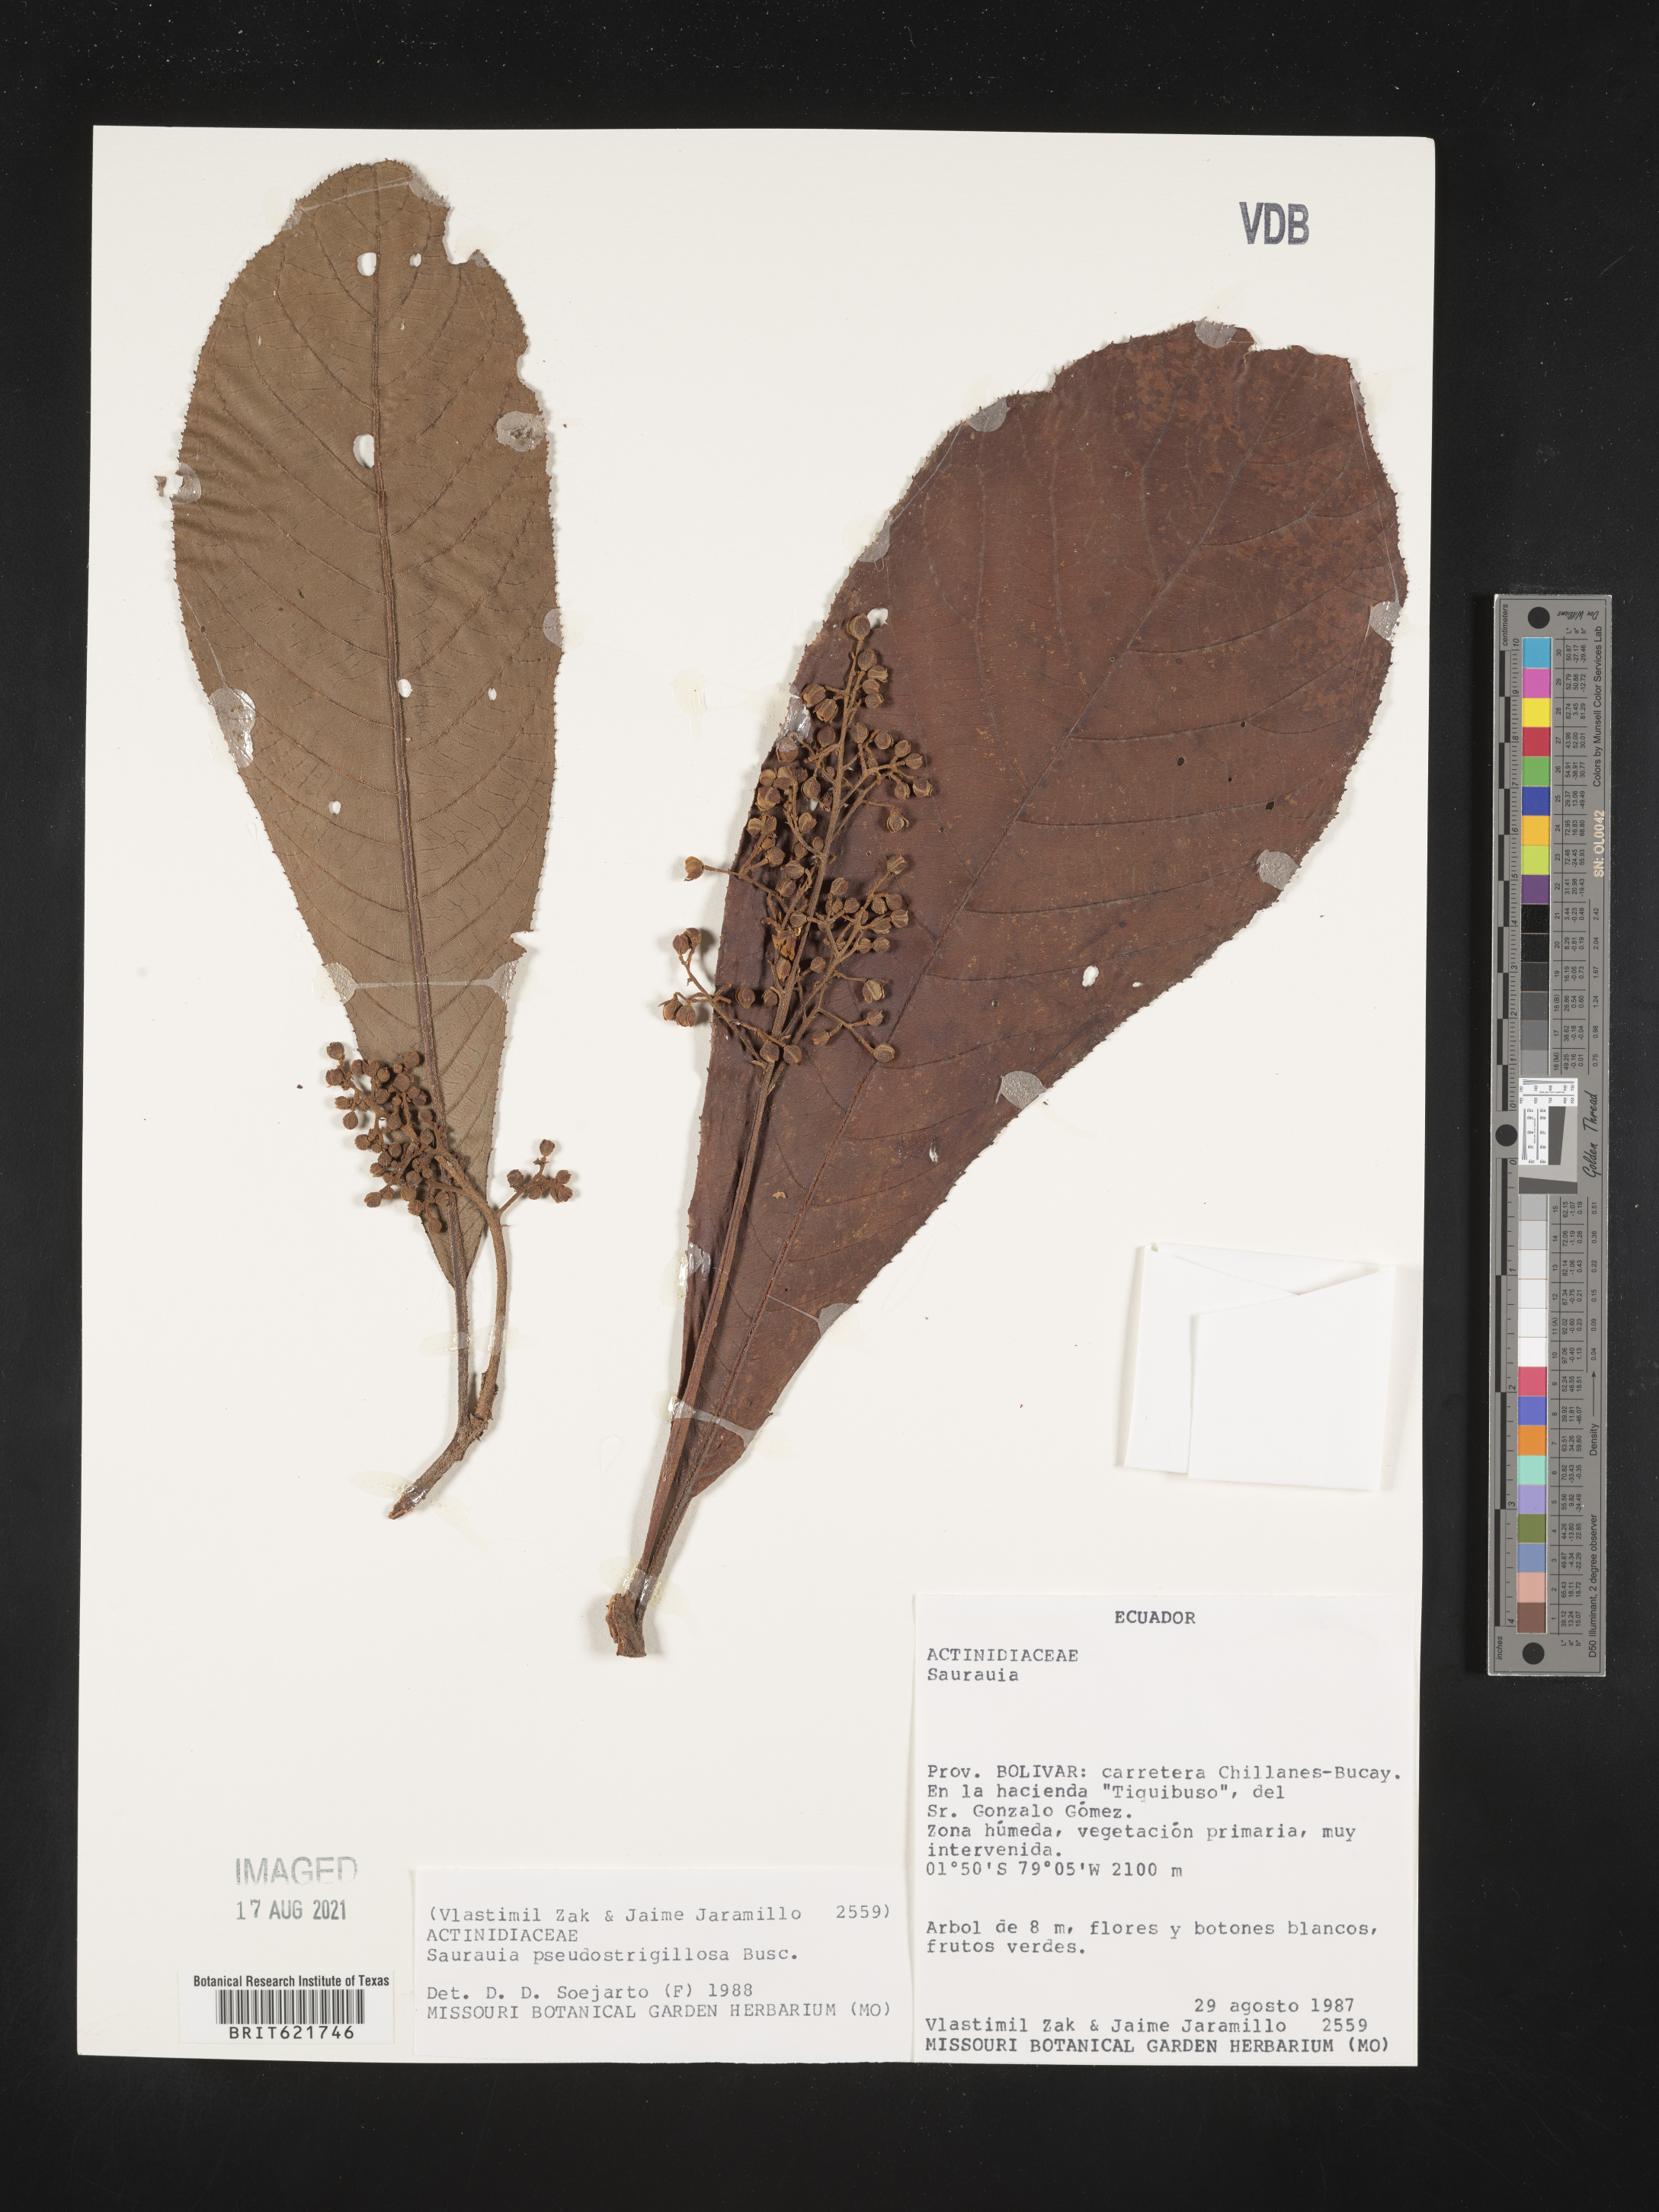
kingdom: Plantae
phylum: Tracheophyta
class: Magnoliopsida
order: Ericales
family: Actinidiaceae
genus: Saurauia
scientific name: Saurauia pseudostrigillosa
